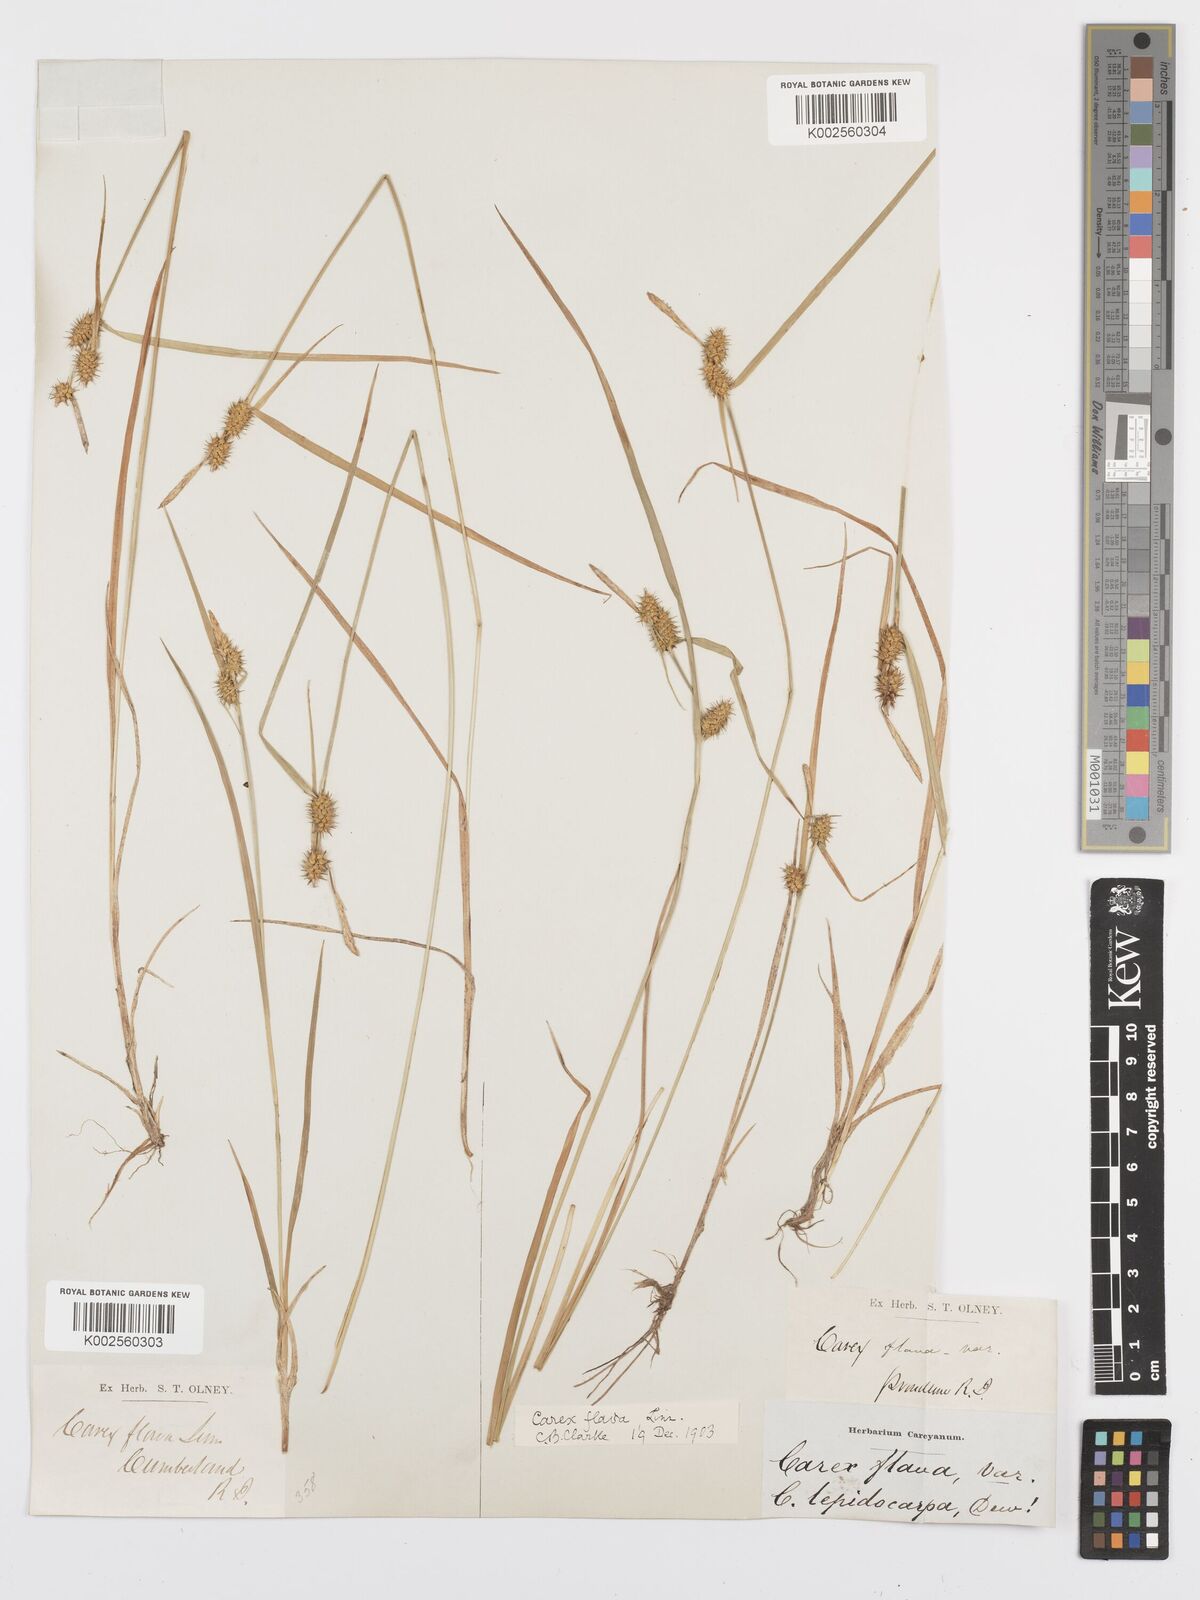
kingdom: Plantae
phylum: Tracheophyta
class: Liliopsida
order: Poales
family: Cyperaceae
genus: Carex
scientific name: Carex flava
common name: Large yellow-sedge
